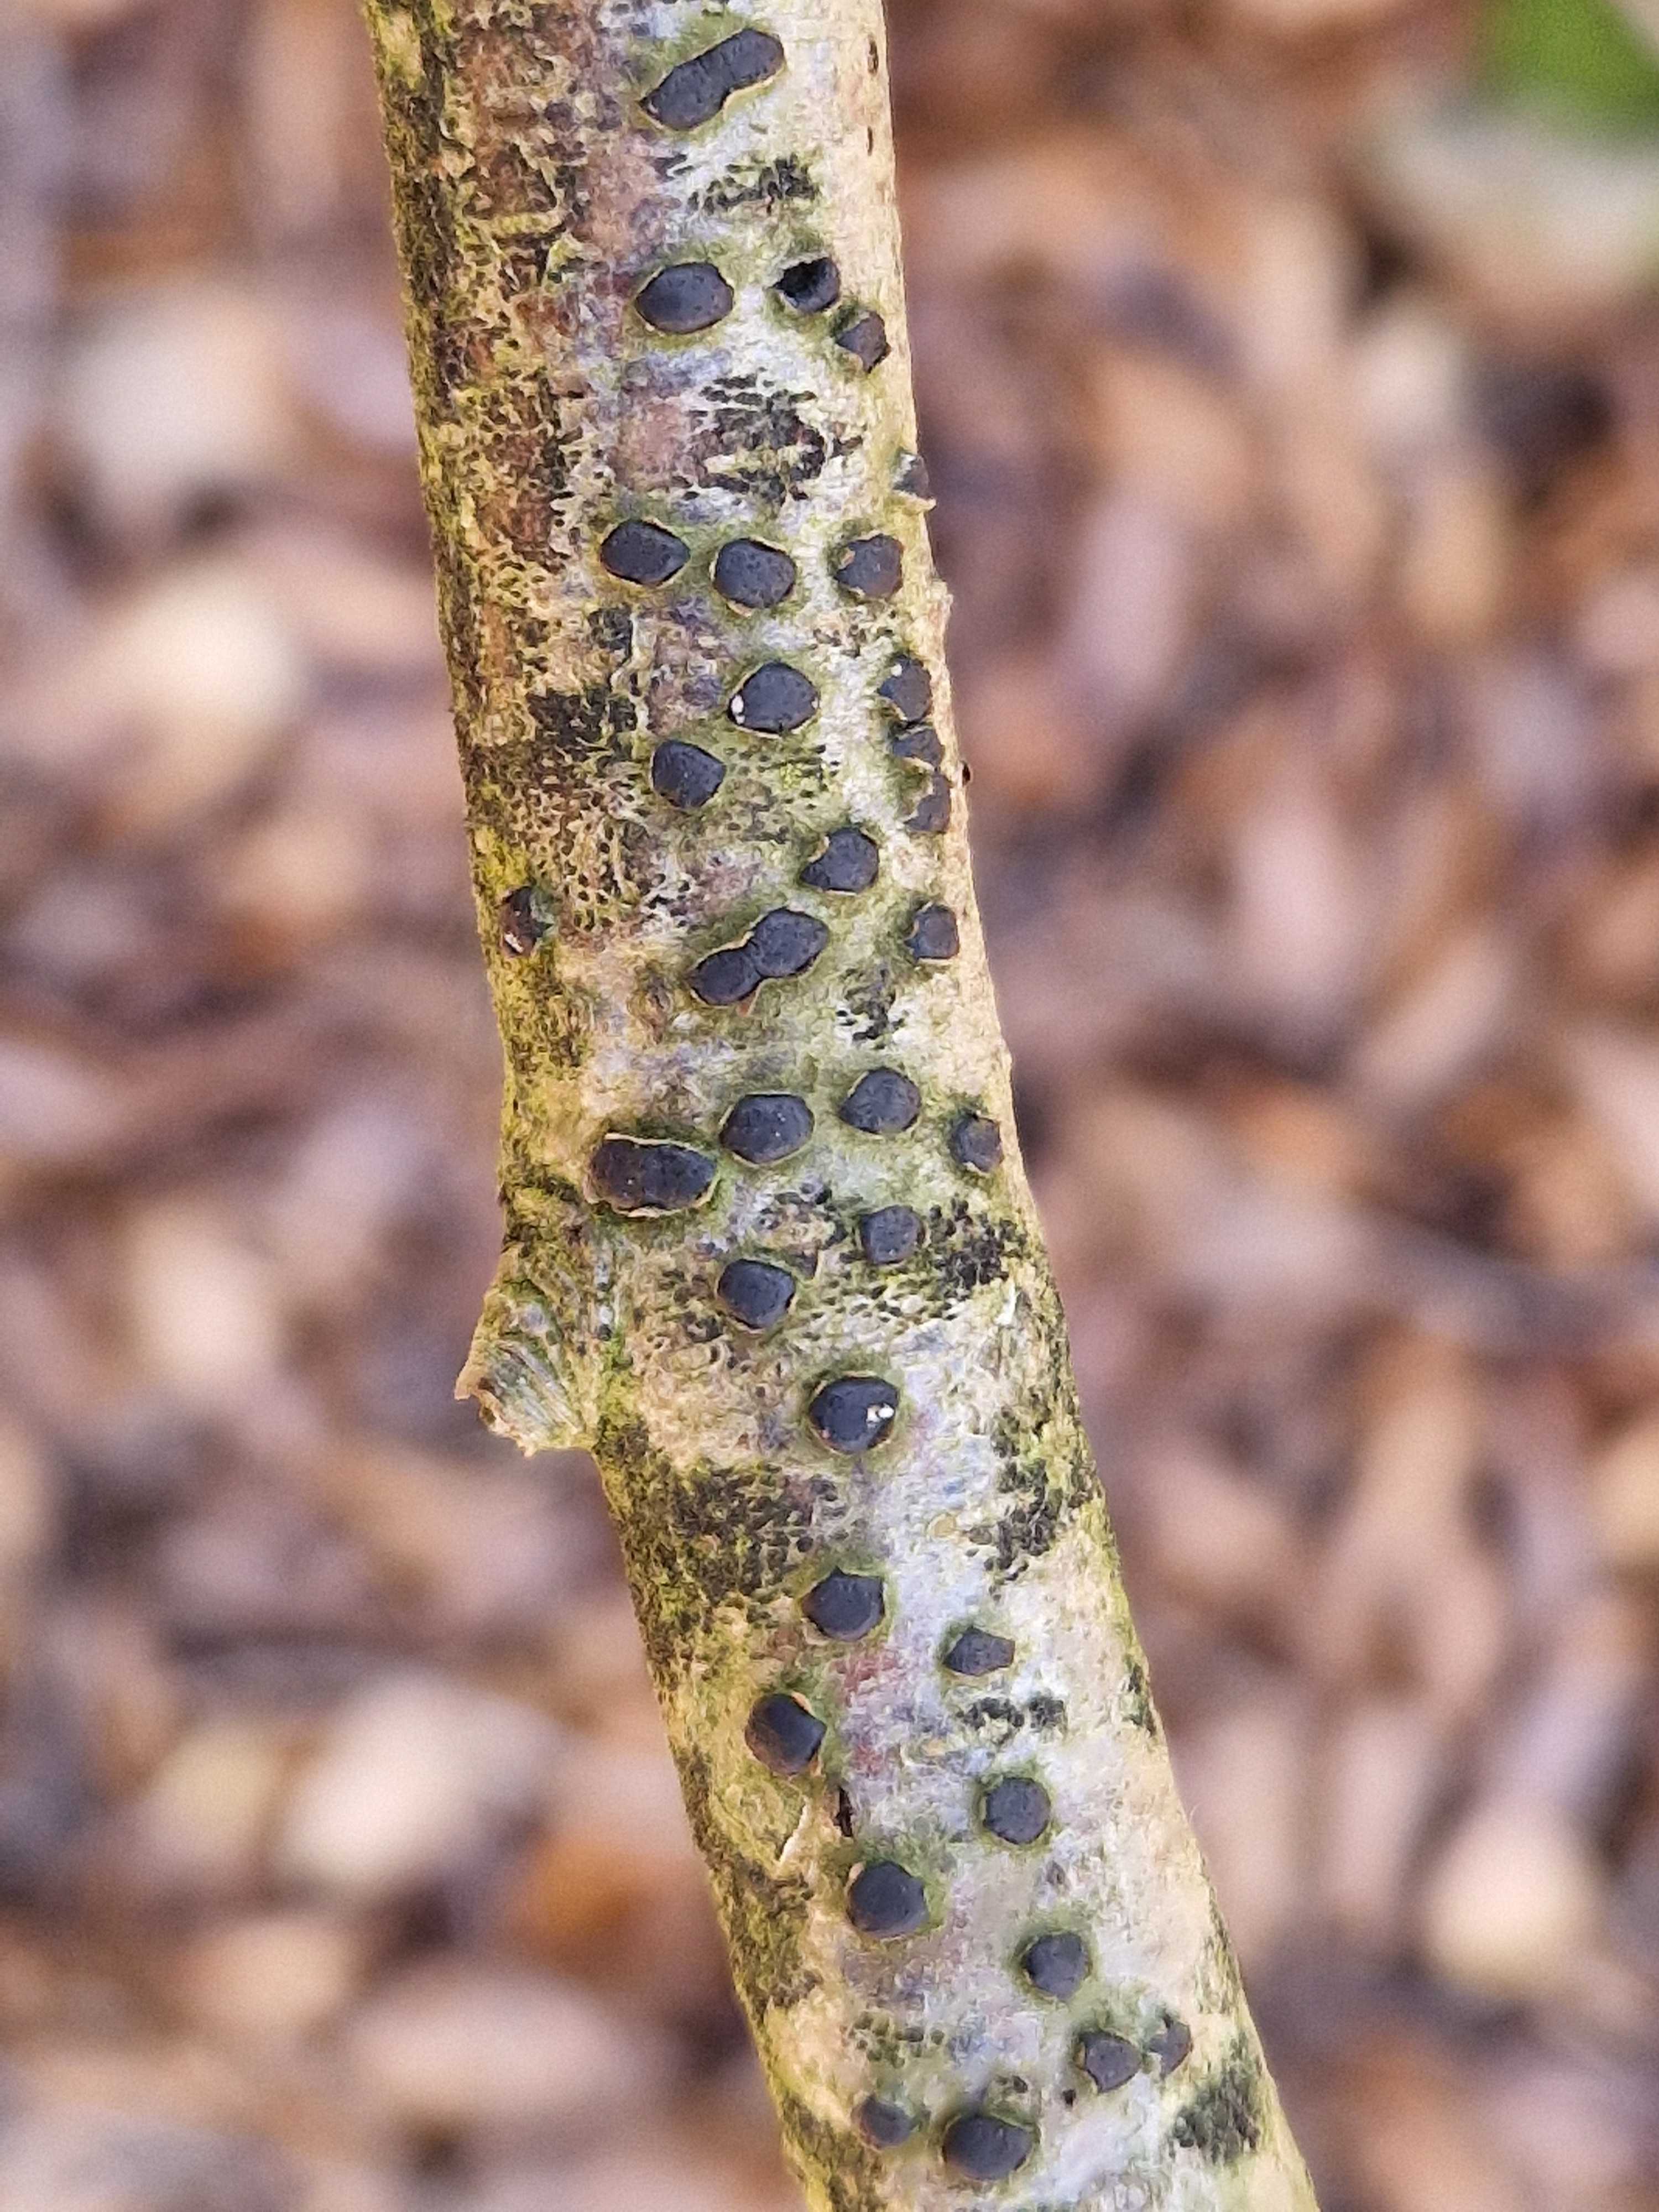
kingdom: Fungi
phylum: Ascomycota
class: Sordariomycetes
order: Xylariales
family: Diatrypaceae
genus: Diatrype
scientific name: Diatrype disciformis
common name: kant-kulskorpe
